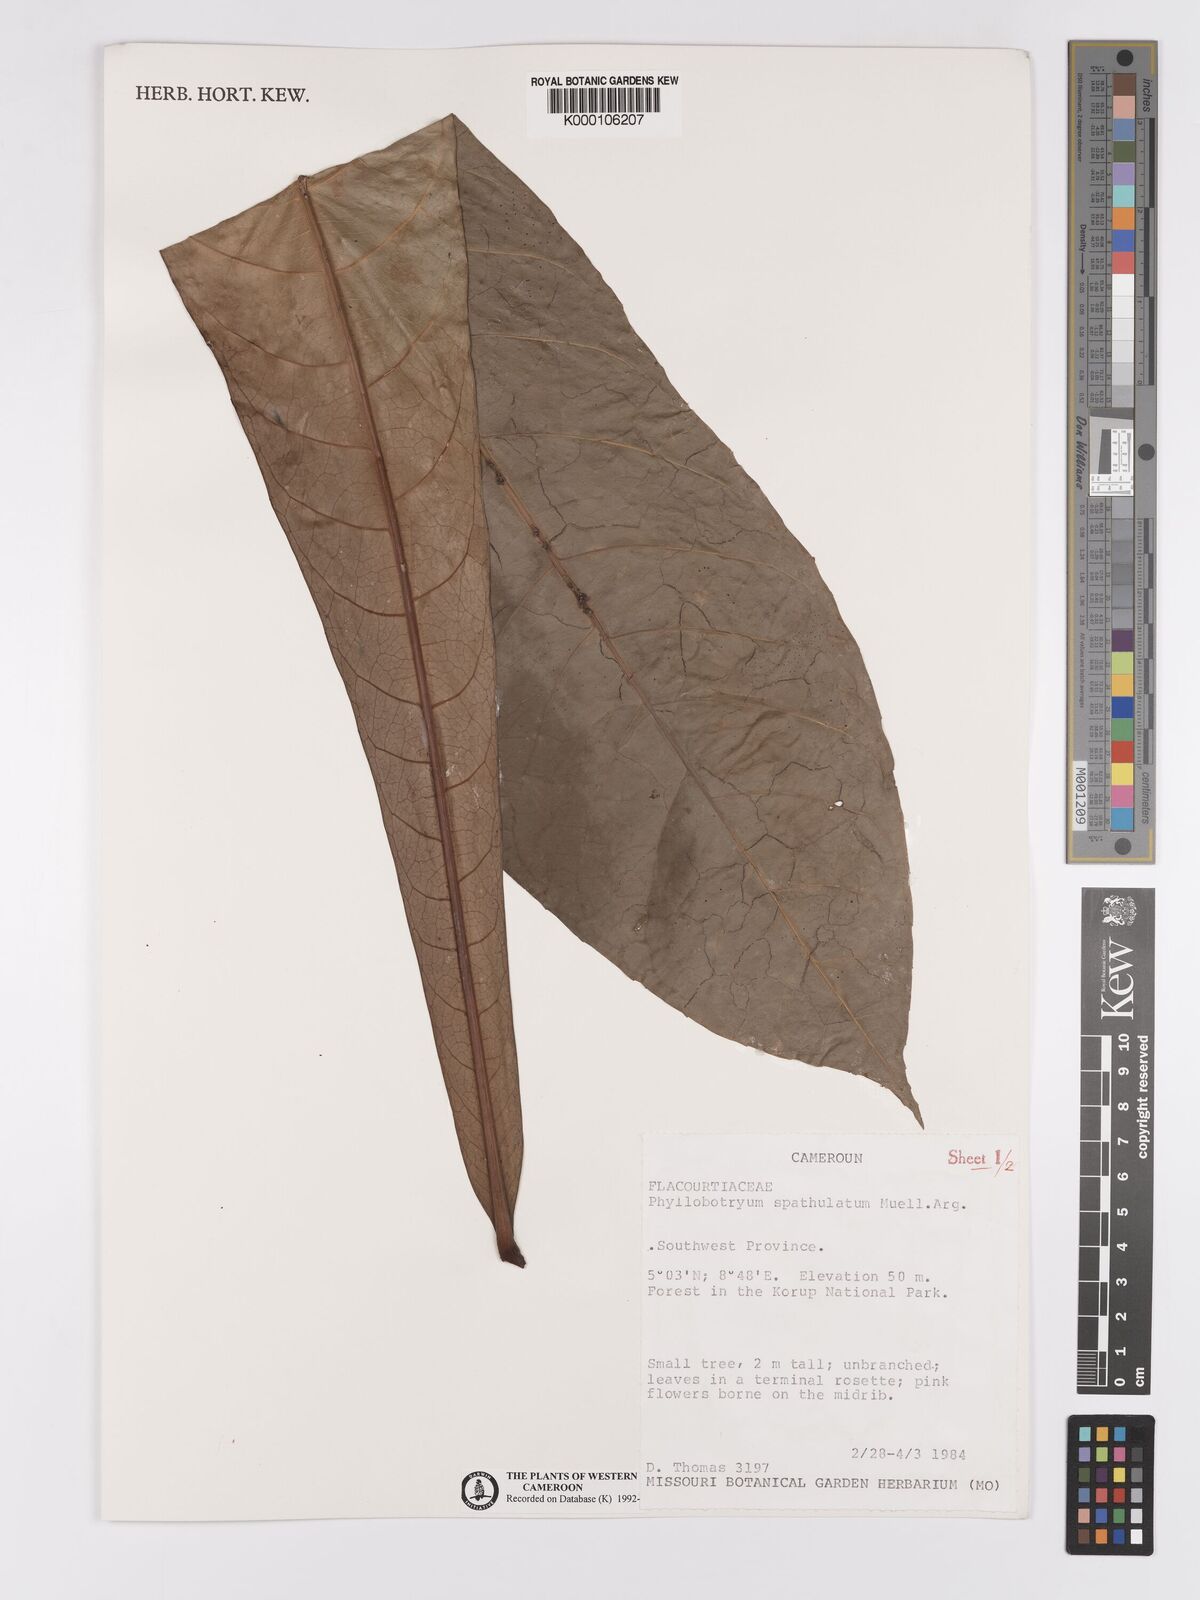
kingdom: Plantae
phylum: Tracheophyta
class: Magnoliopsida
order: Malpighiales
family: Salicaceae
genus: Phyllobotryon
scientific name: Phyllobotryon
